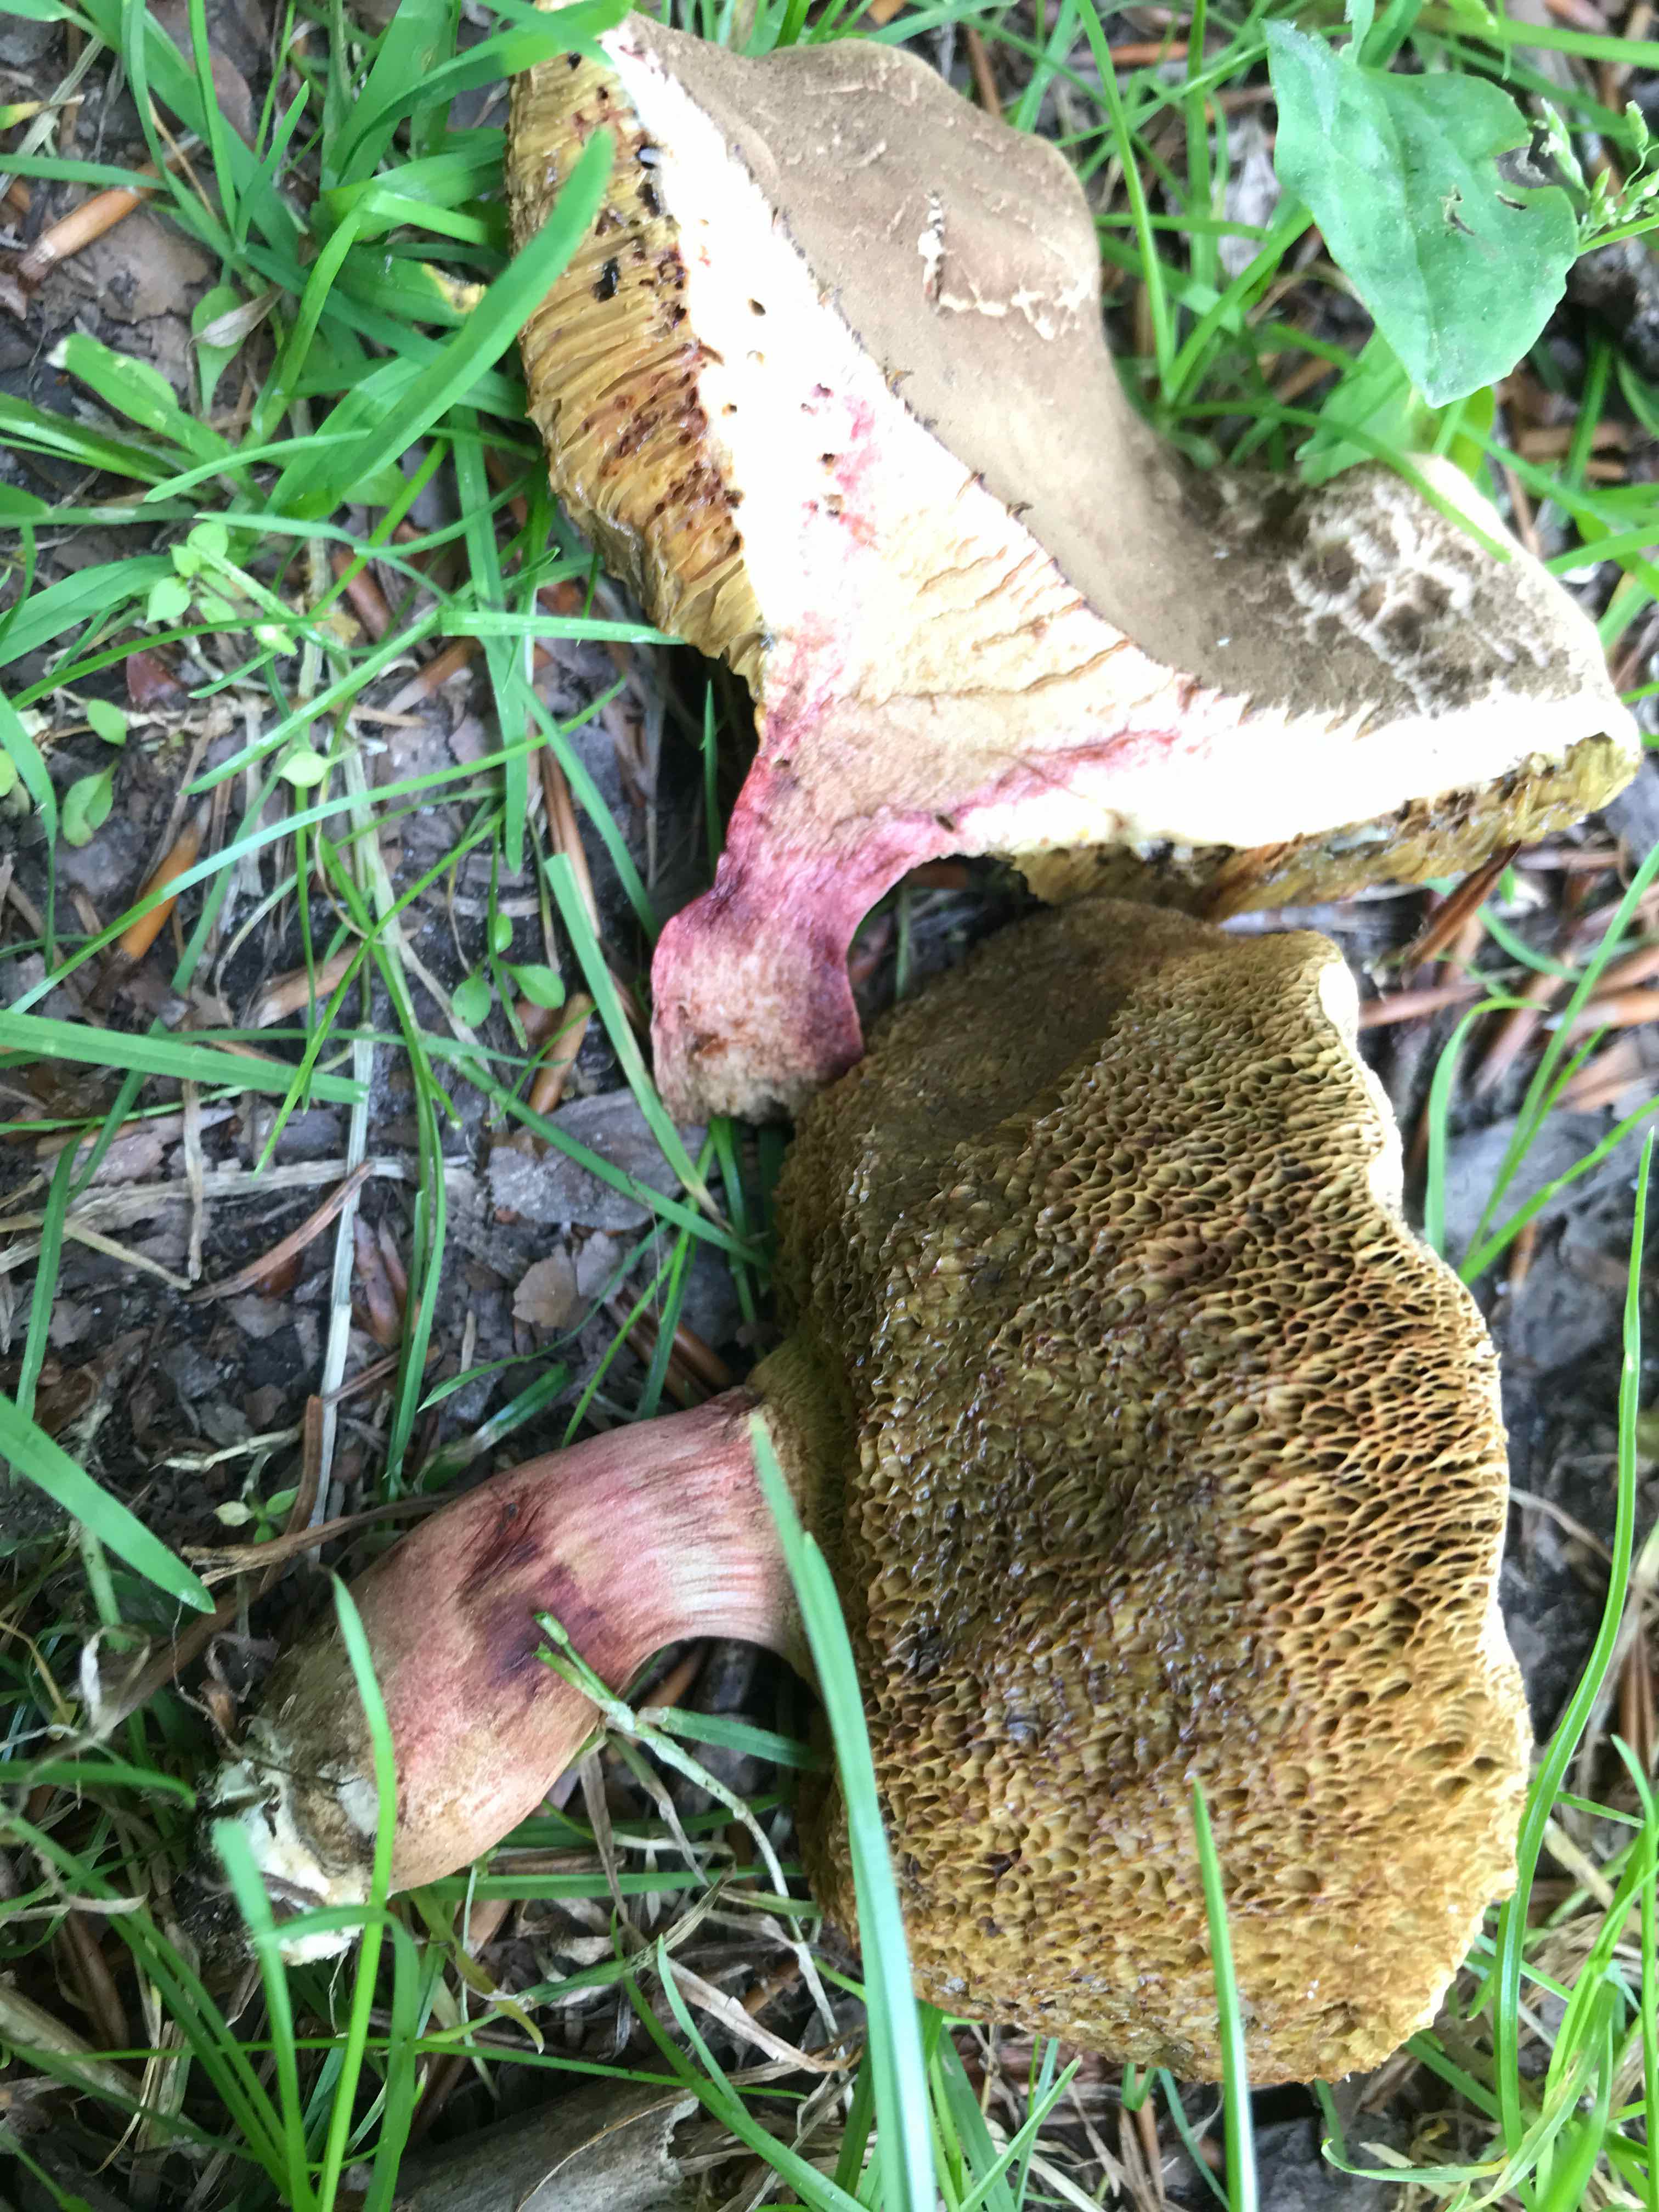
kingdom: Fungi
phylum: Basidiomycota
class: Agaricomycetes
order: Boletales
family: Boletaceae
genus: Xerocomellus
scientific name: Xerocomellus chrysenteron
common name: rødsprukken rørhat
